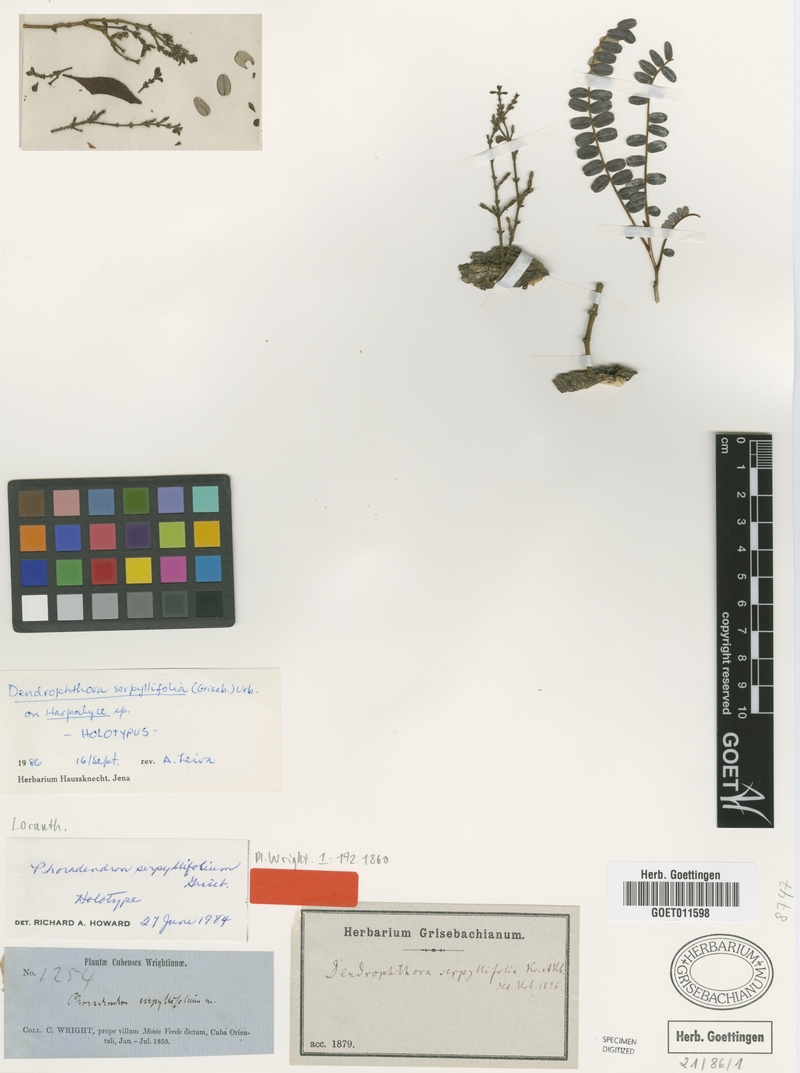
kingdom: Plantae
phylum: Tracheophyta
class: Magnoliopsida
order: Santalales
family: Viscaceae
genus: Dendrophthora
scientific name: Dendrophthora serpyllifolia
